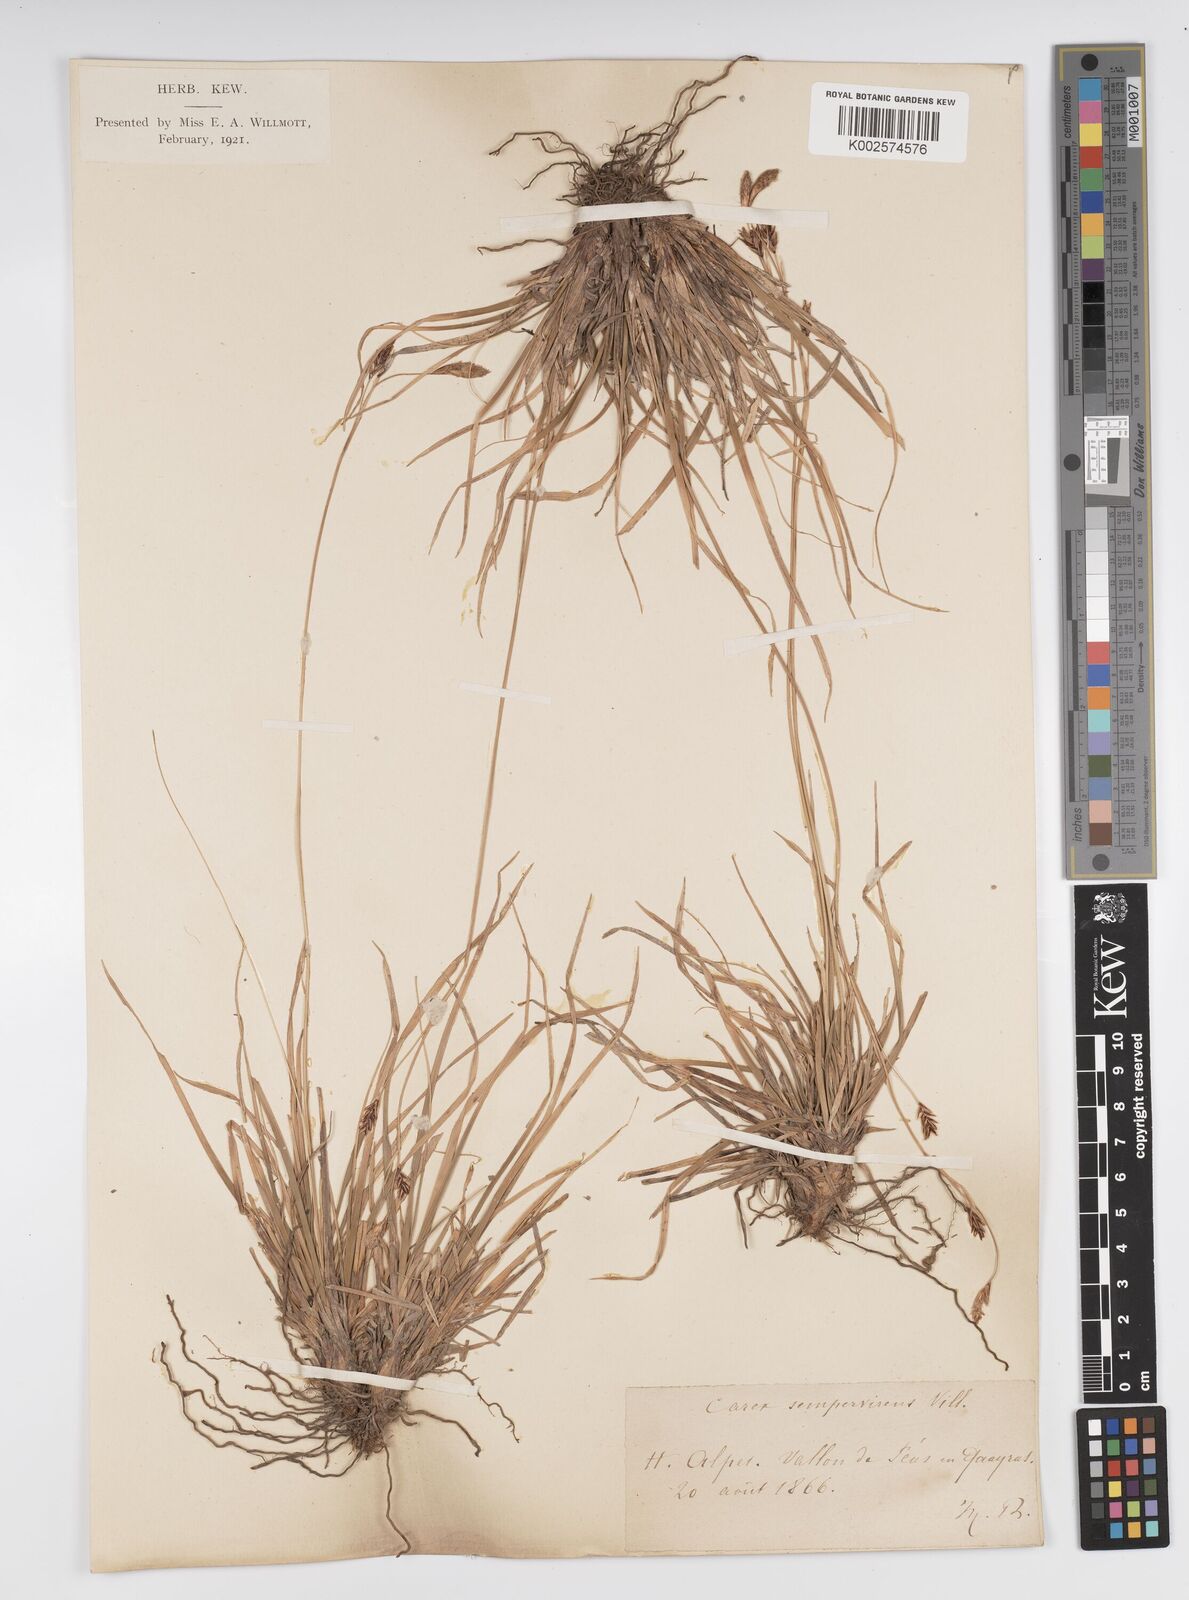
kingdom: Plantae
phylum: Tracheophyta
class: Liliopsida
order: Poales
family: Cyperaceae
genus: Carex
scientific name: Carex sempervirens
